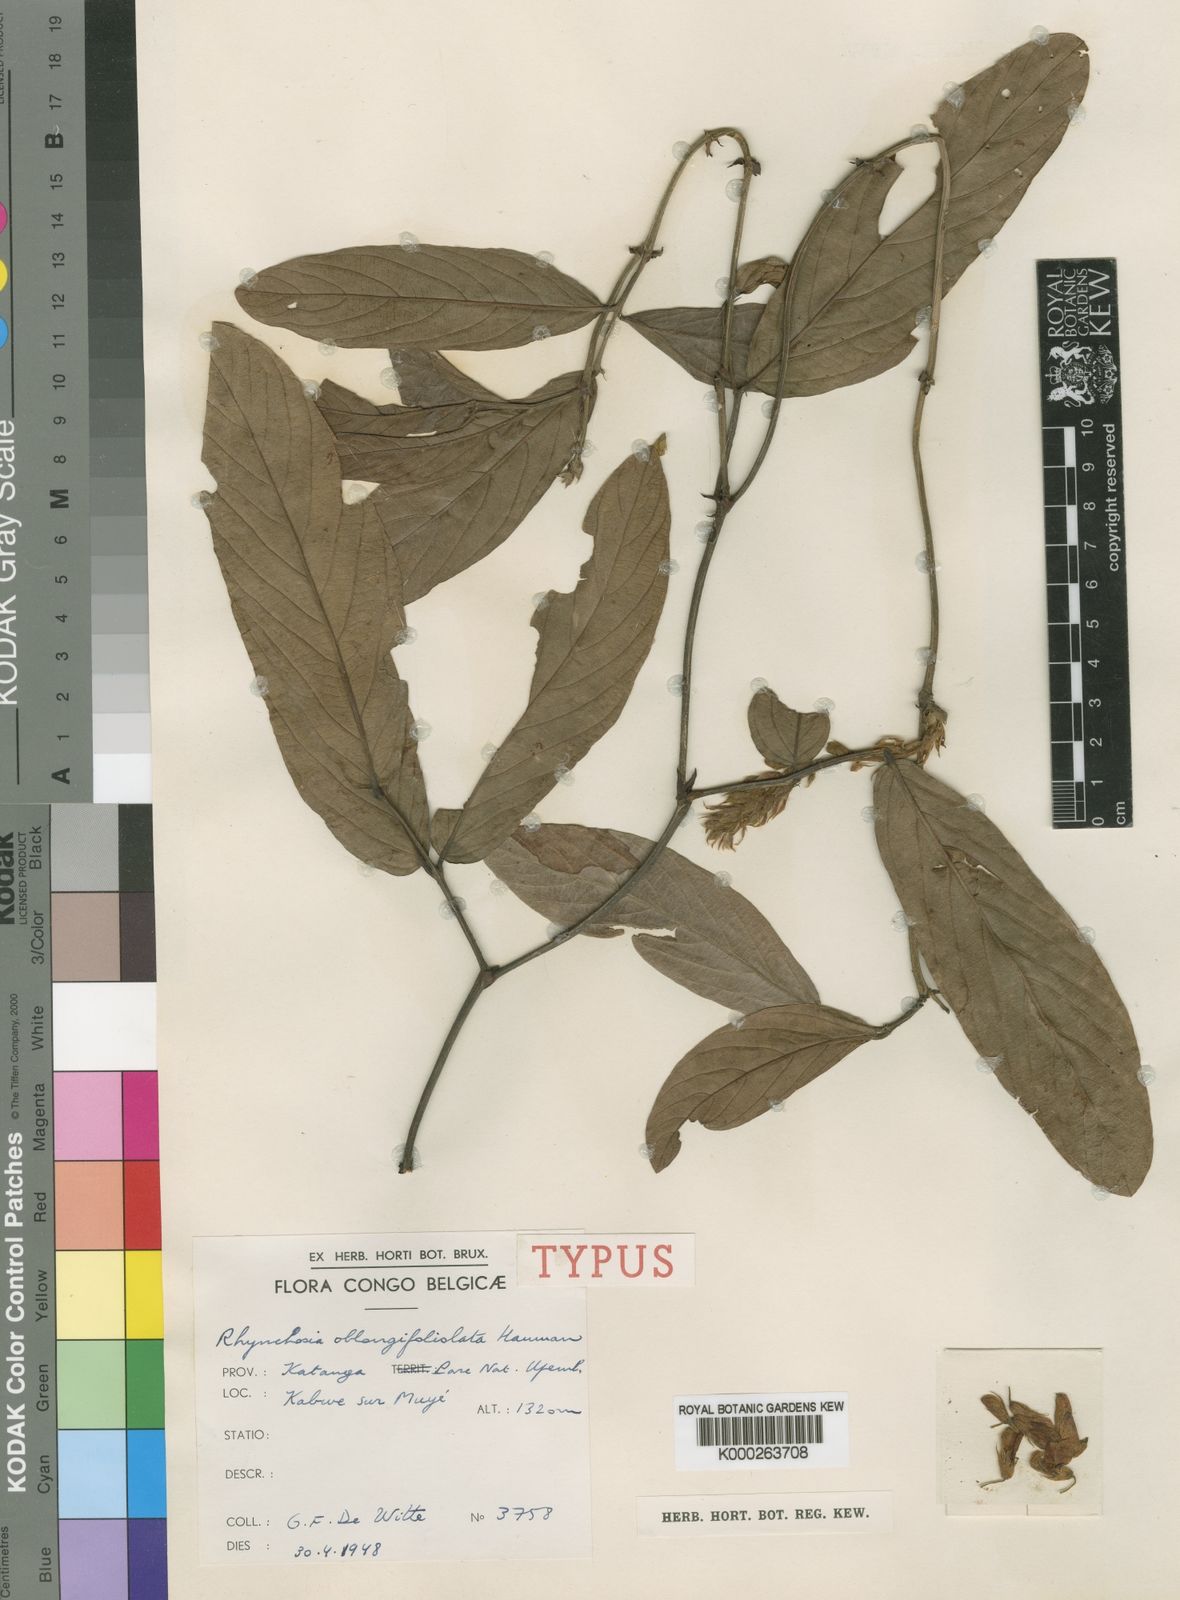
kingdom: Plantae
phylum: Tracheophyta
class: Magnoliopsida
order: Fabales
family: Fabaceae
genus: Rhynchosia
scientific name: Rhynchosia oblongifoliolata
